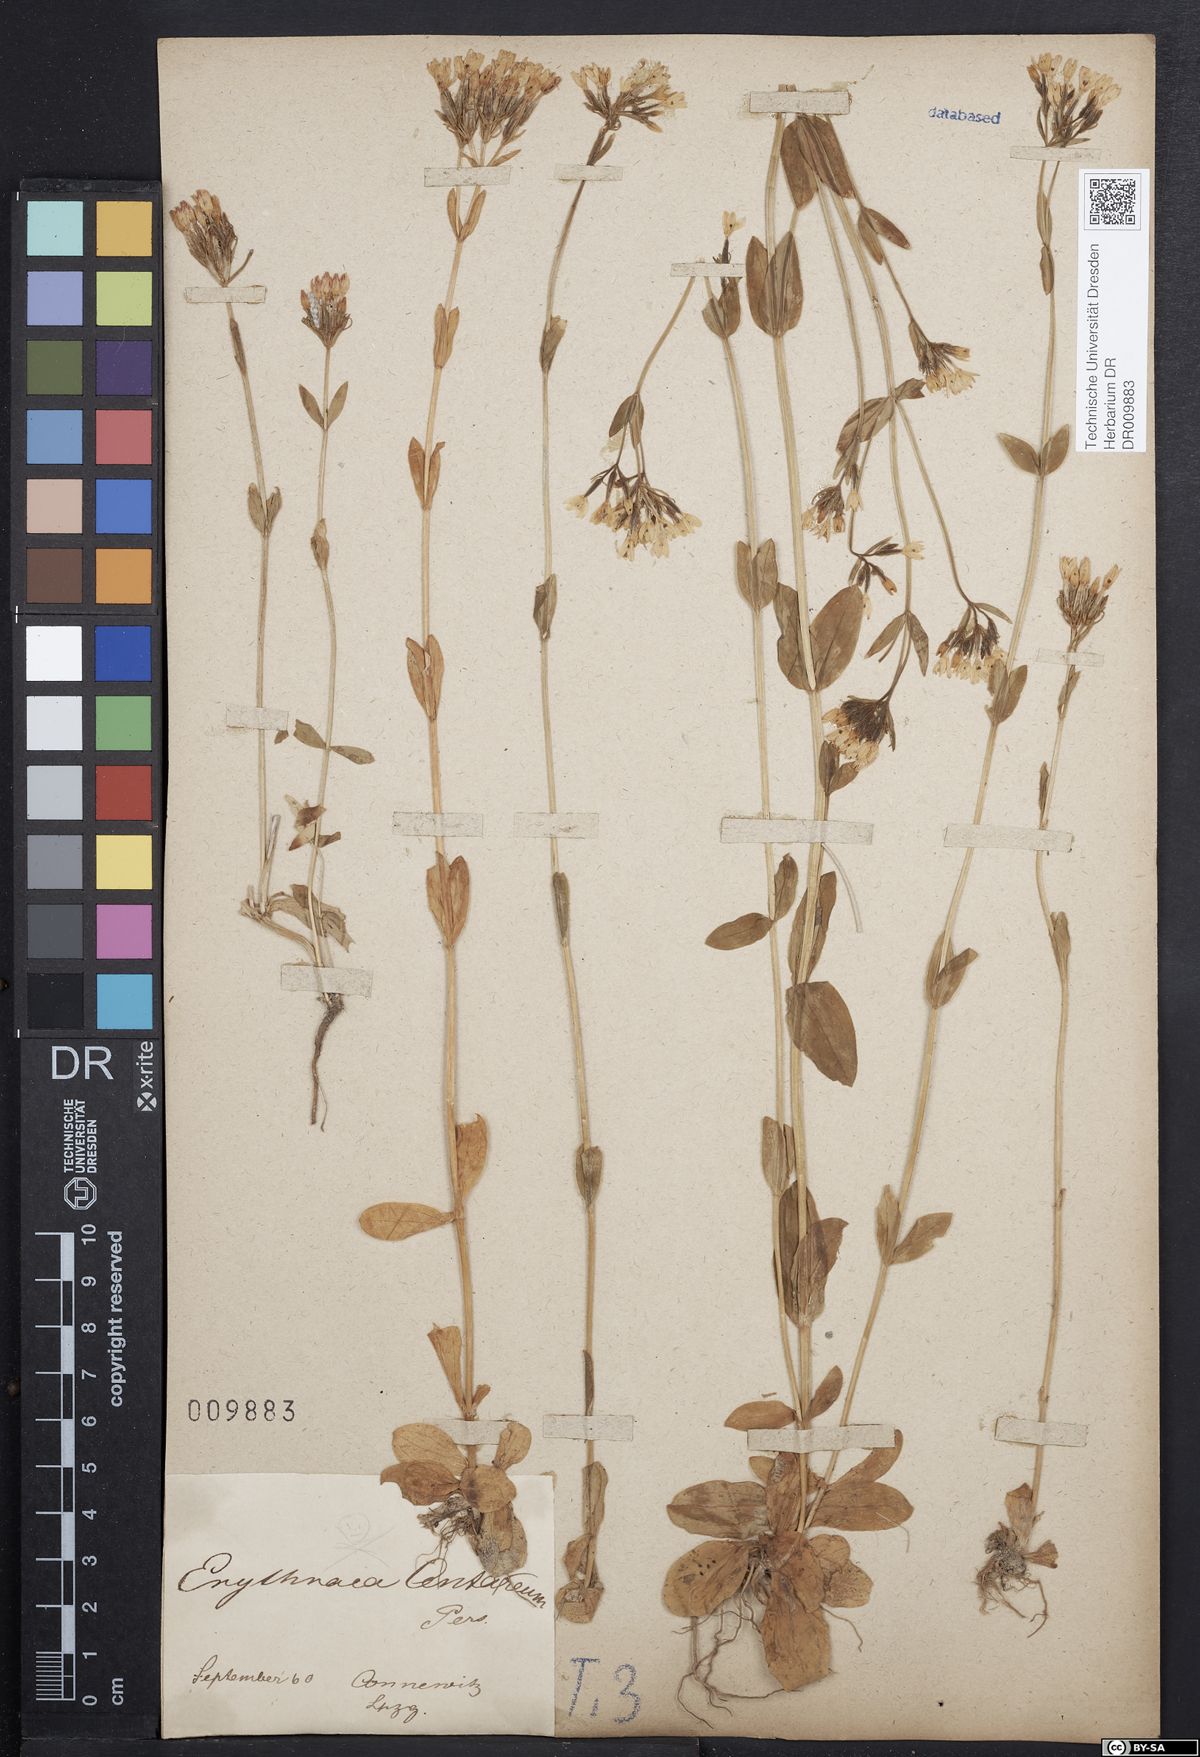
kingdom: Plantae
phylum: Tracheophyta
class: Magnoliopsida
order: Gentianales
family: Gentianaceae
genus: Centaurium
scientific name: Centaurium erythraea
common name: Common centaury
